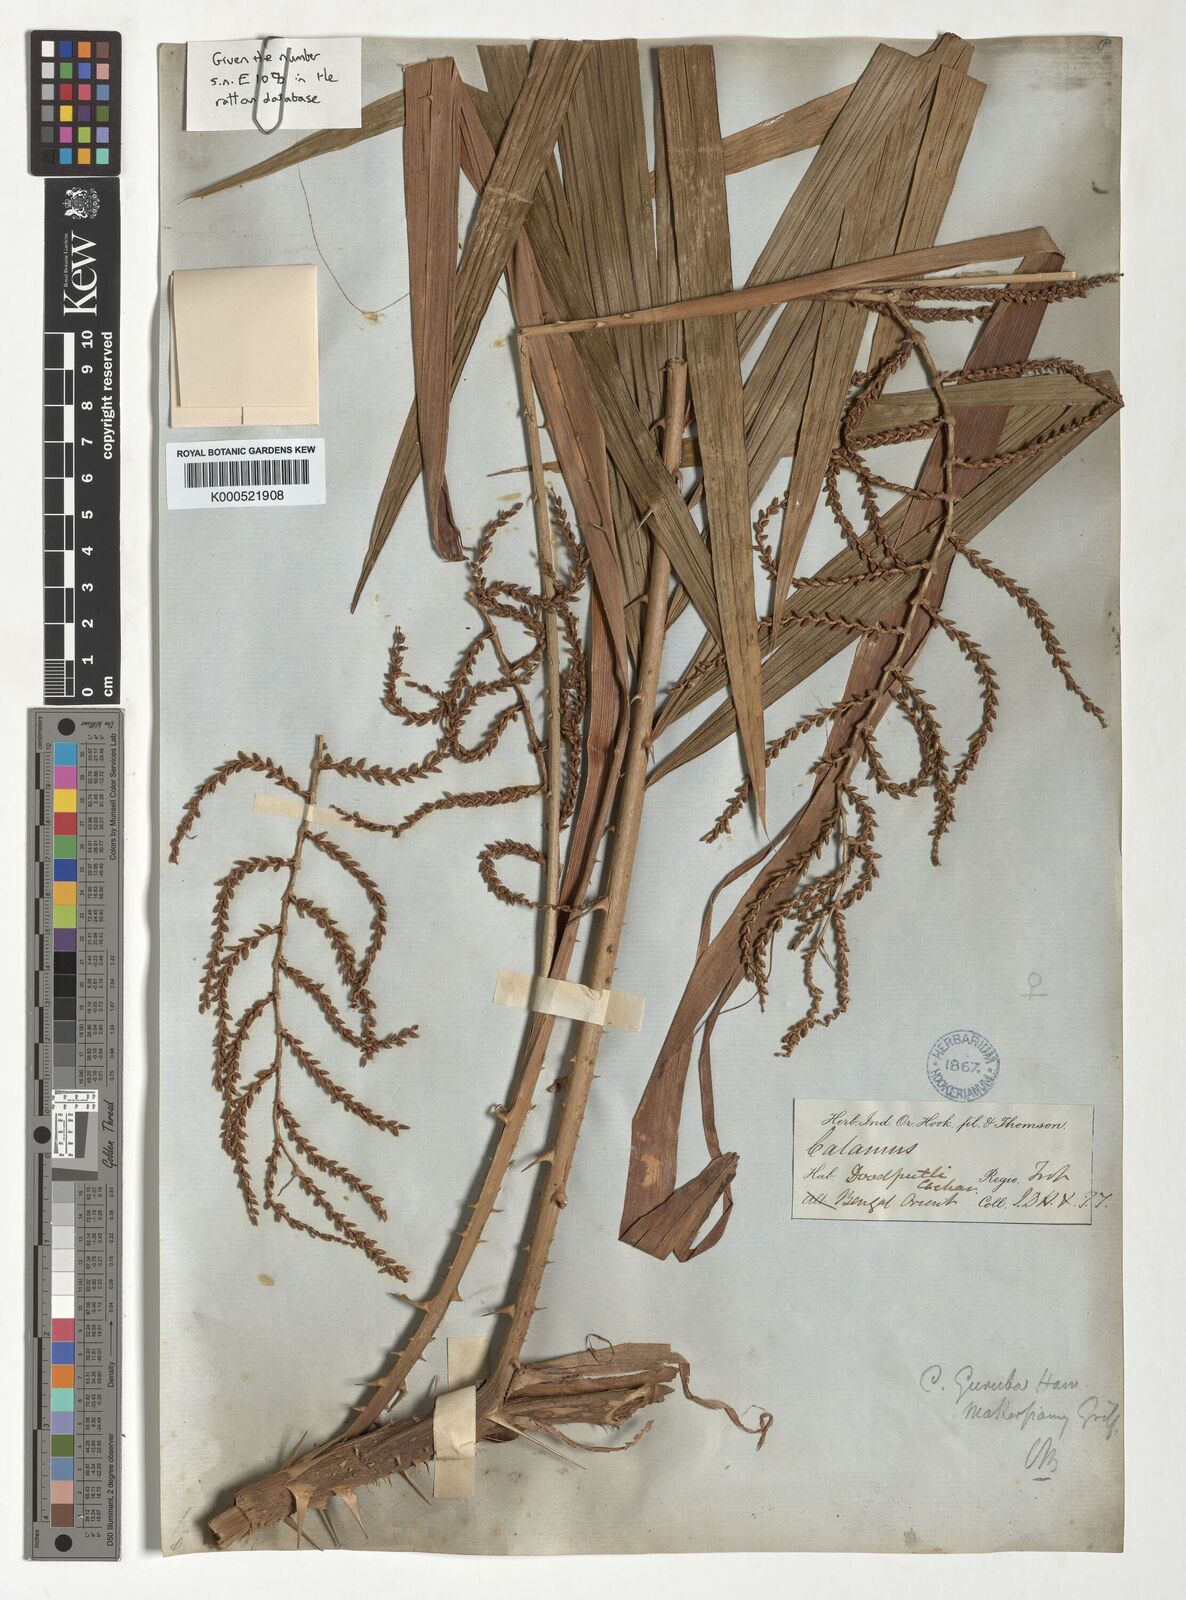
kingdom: Plantae
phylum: Tracheophyta
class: Liliopsida
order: Arecales
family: Arecaceae
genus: Calamus
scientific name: Calamus
